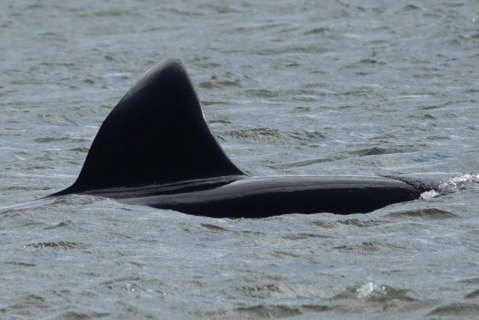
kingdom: Animalia
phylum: Chordata
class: Mammalia
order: Cetacea
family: Delphinidae
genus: Orcinus
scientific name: Orcinus orca
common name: Spækhugger
